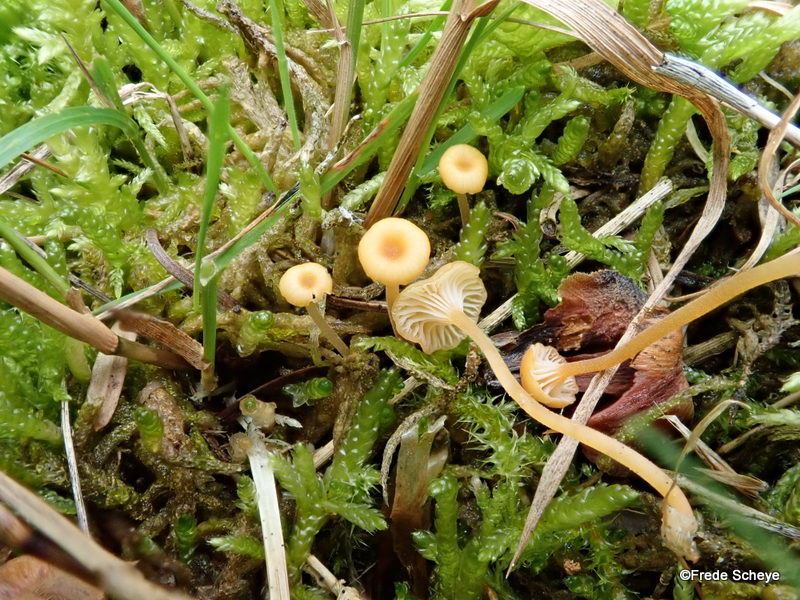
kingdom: Fungi
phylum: Basidiomycota
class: Agaricomycetes
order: Hymenochaetales
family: Rickenellaceae
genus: Rickenella
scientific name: Rickenella fibula
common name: orange mosnavlehat
